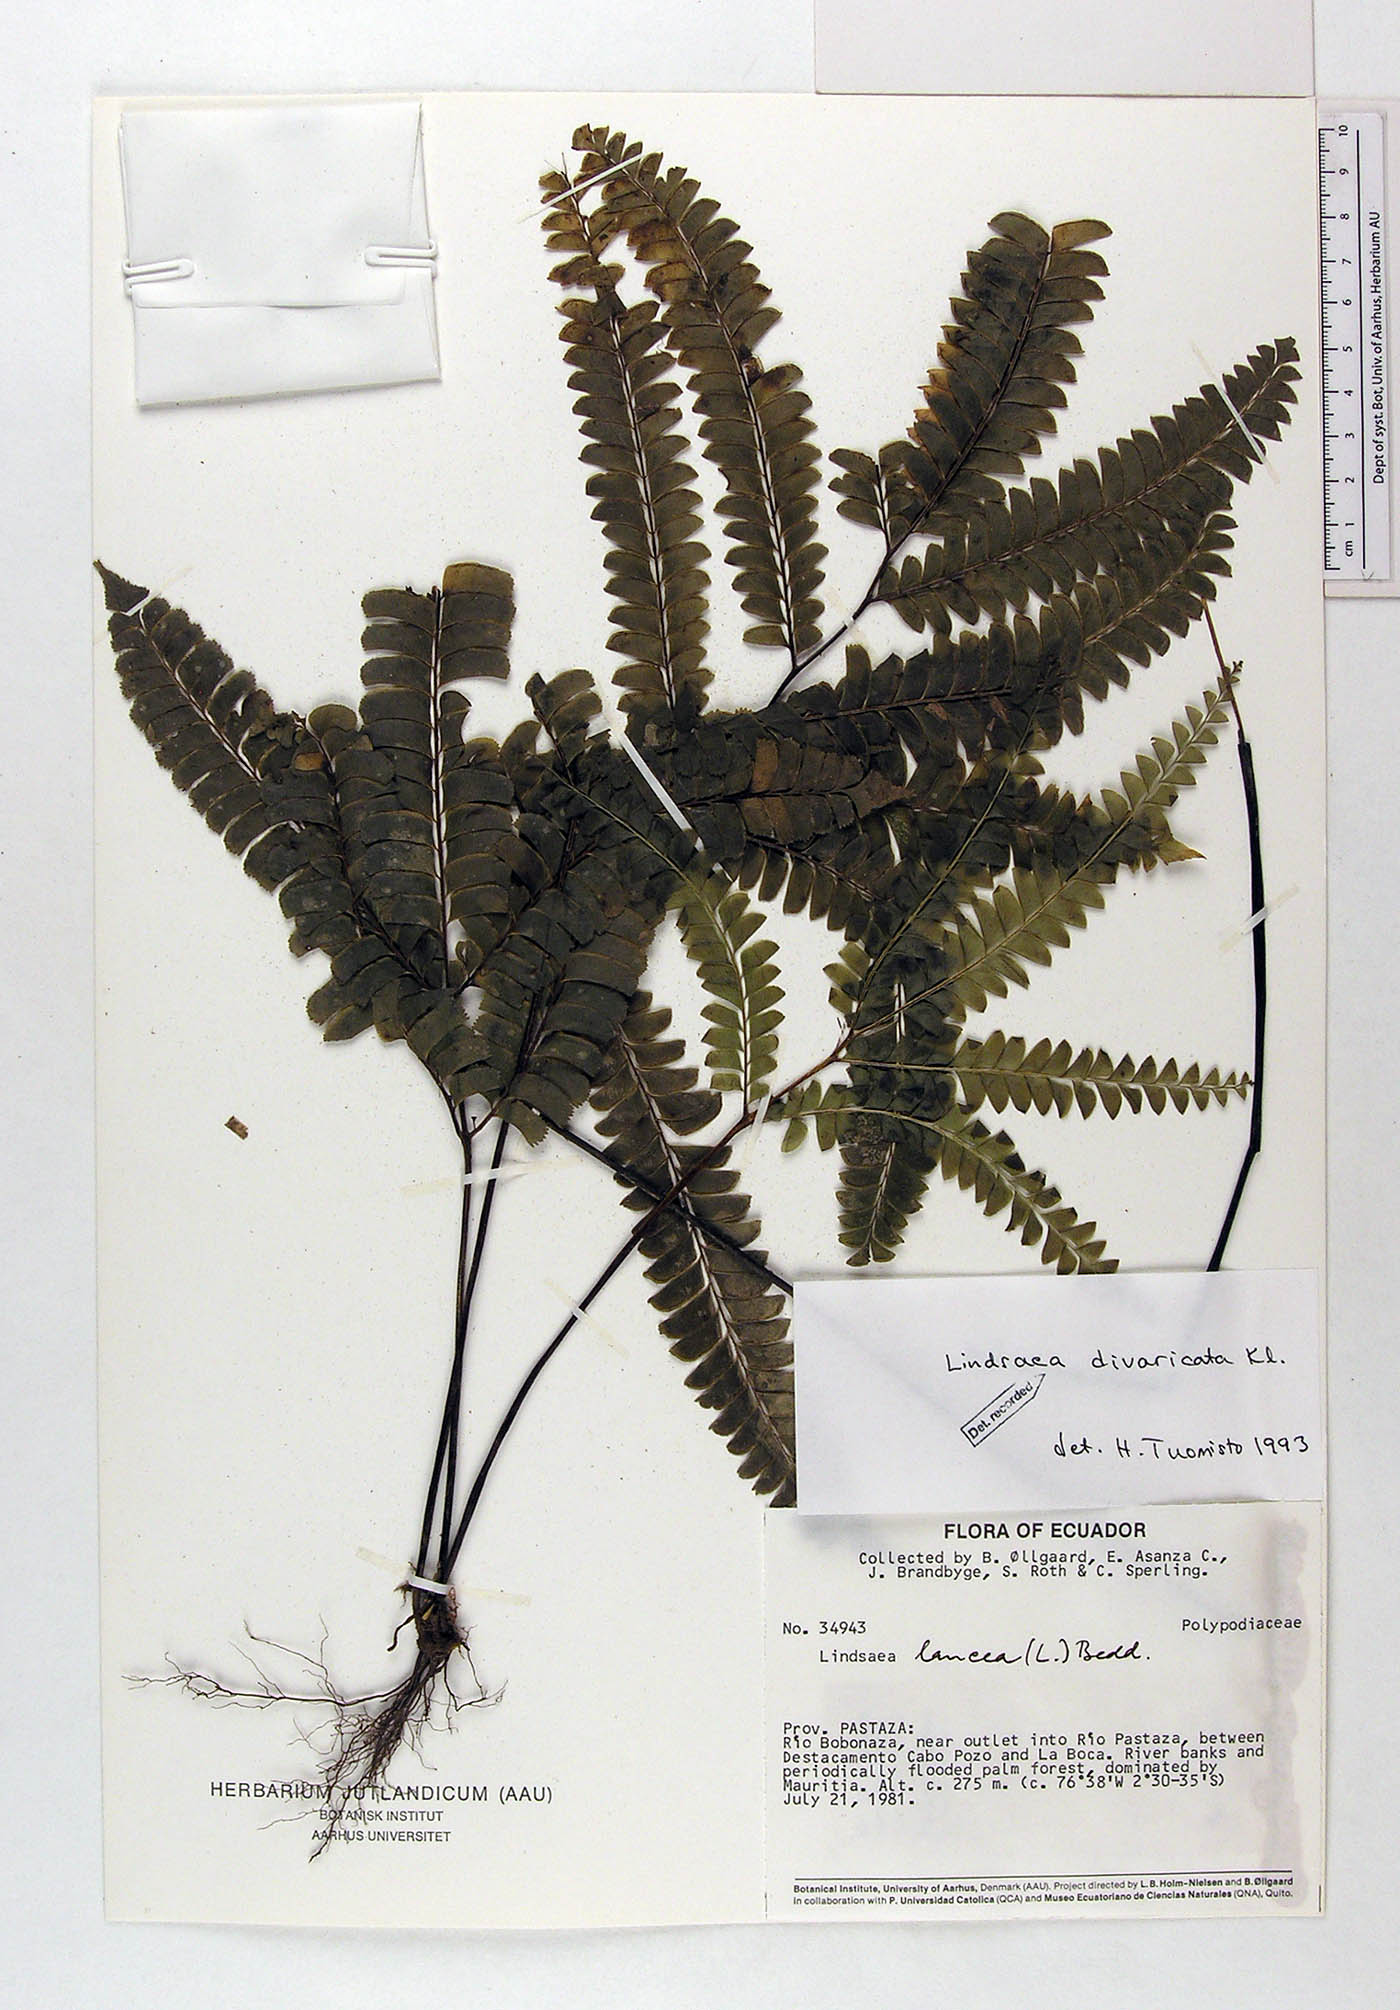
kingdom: Plantae
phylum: Tracheophyta
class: Polypodiopsida
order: Polypodiales
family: Lindsaeaceae
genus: Lindsaea
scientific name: Lindsaea divaricata
